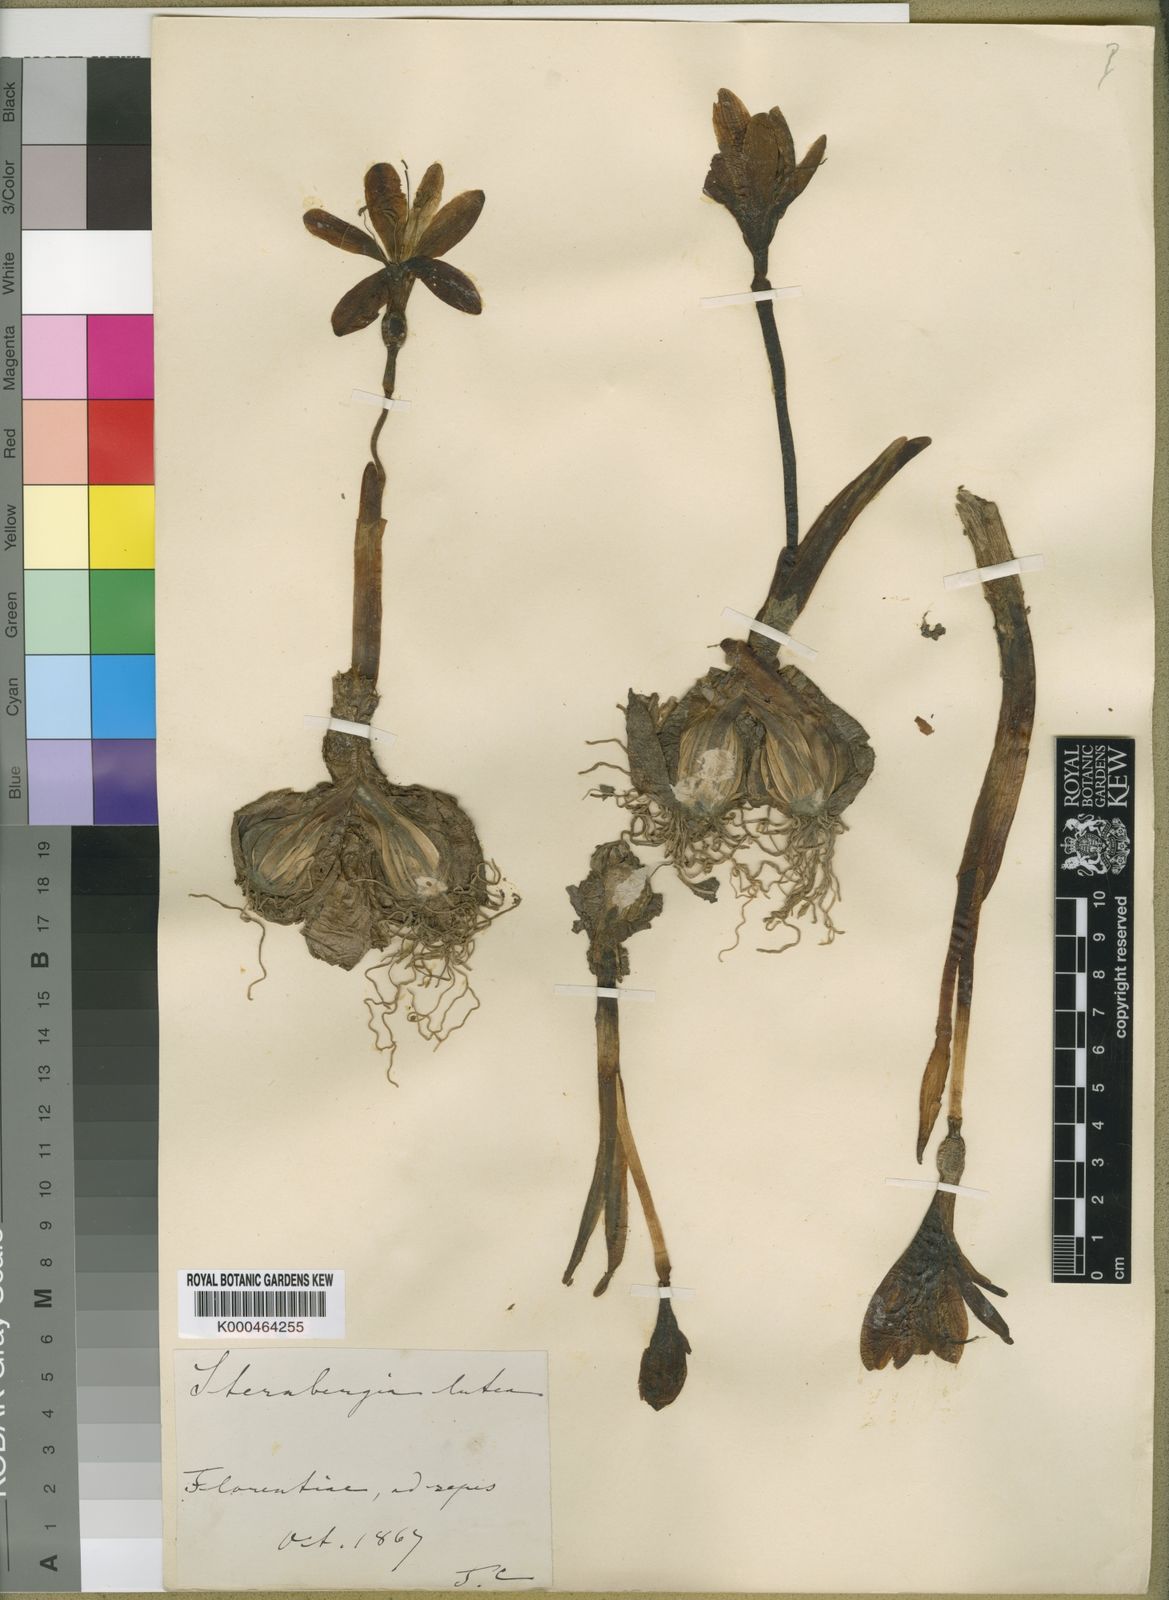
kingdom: Plantae
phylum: Tracheophyta
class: Liliopsida
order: Asparagales
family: Amaryllidaceae
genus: Sternbergia
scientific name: Sternbergia
